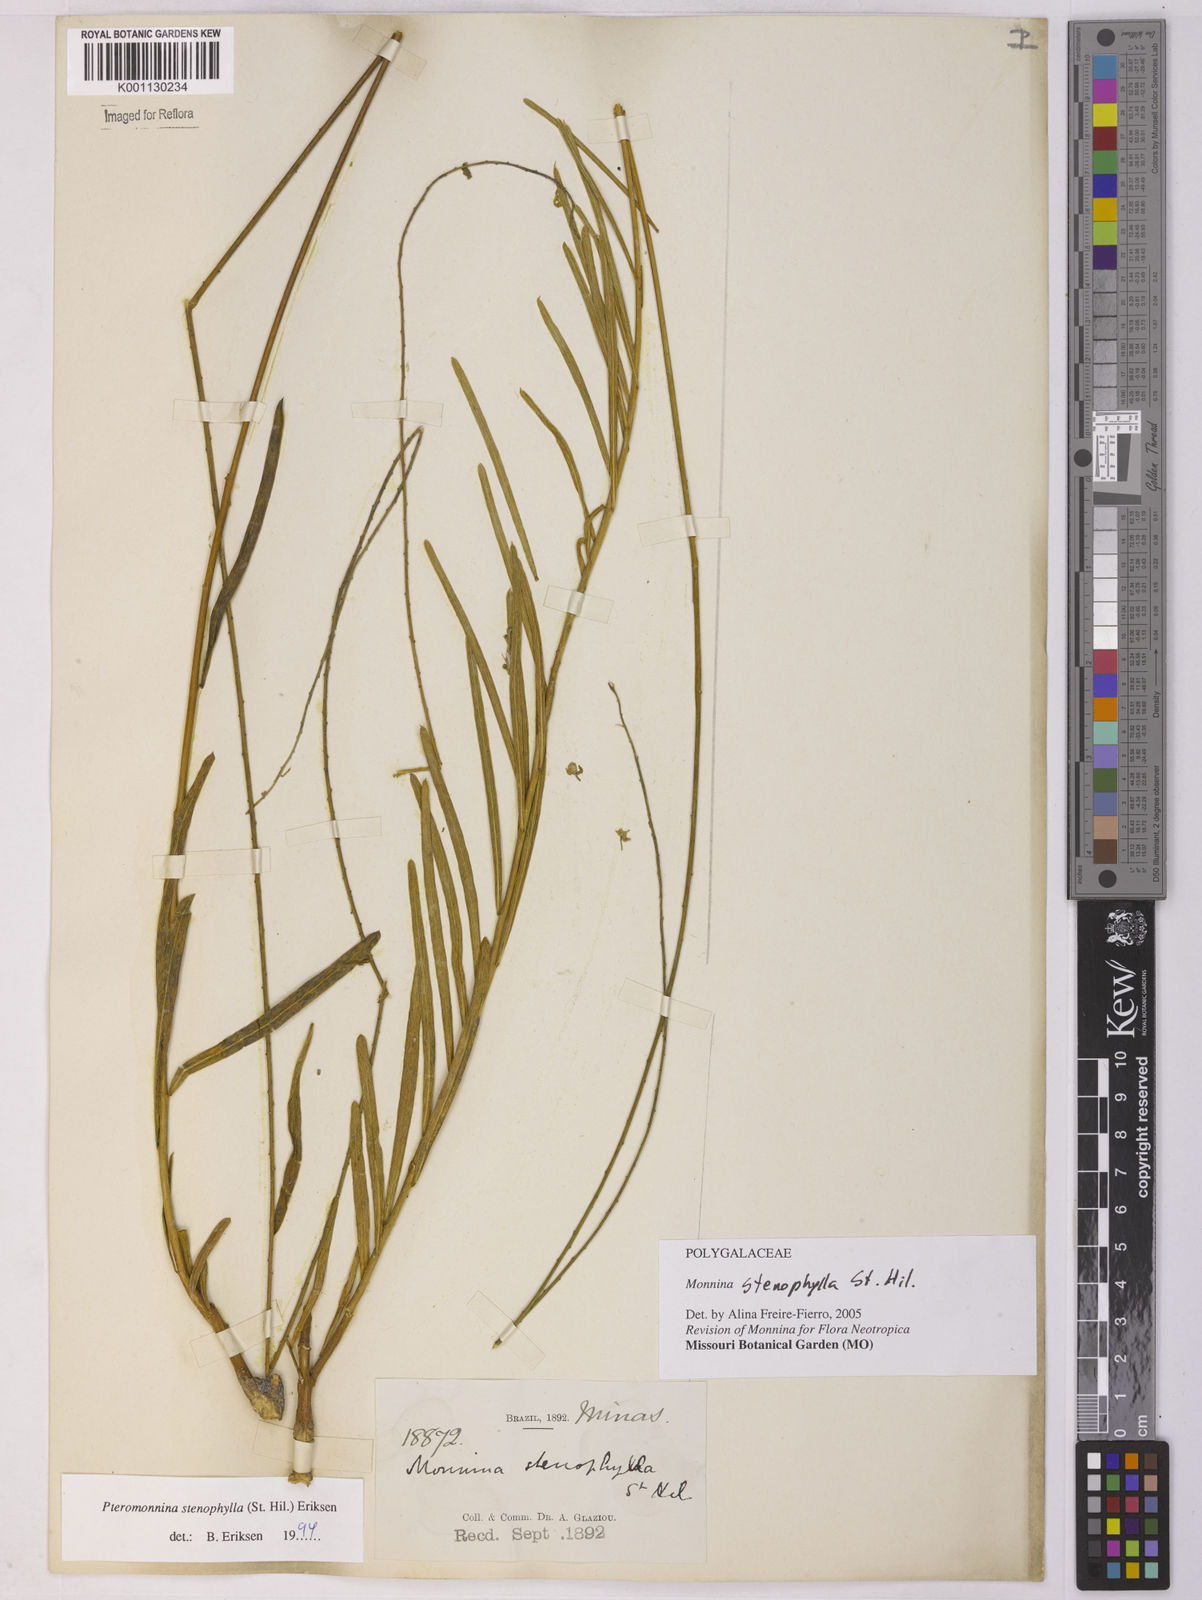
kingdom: Plantae
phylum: Tracheophyta
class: Magnoliopsida
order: Fabales
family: Polygalaceae
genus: Monnina
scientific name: Monnina stenophylla
